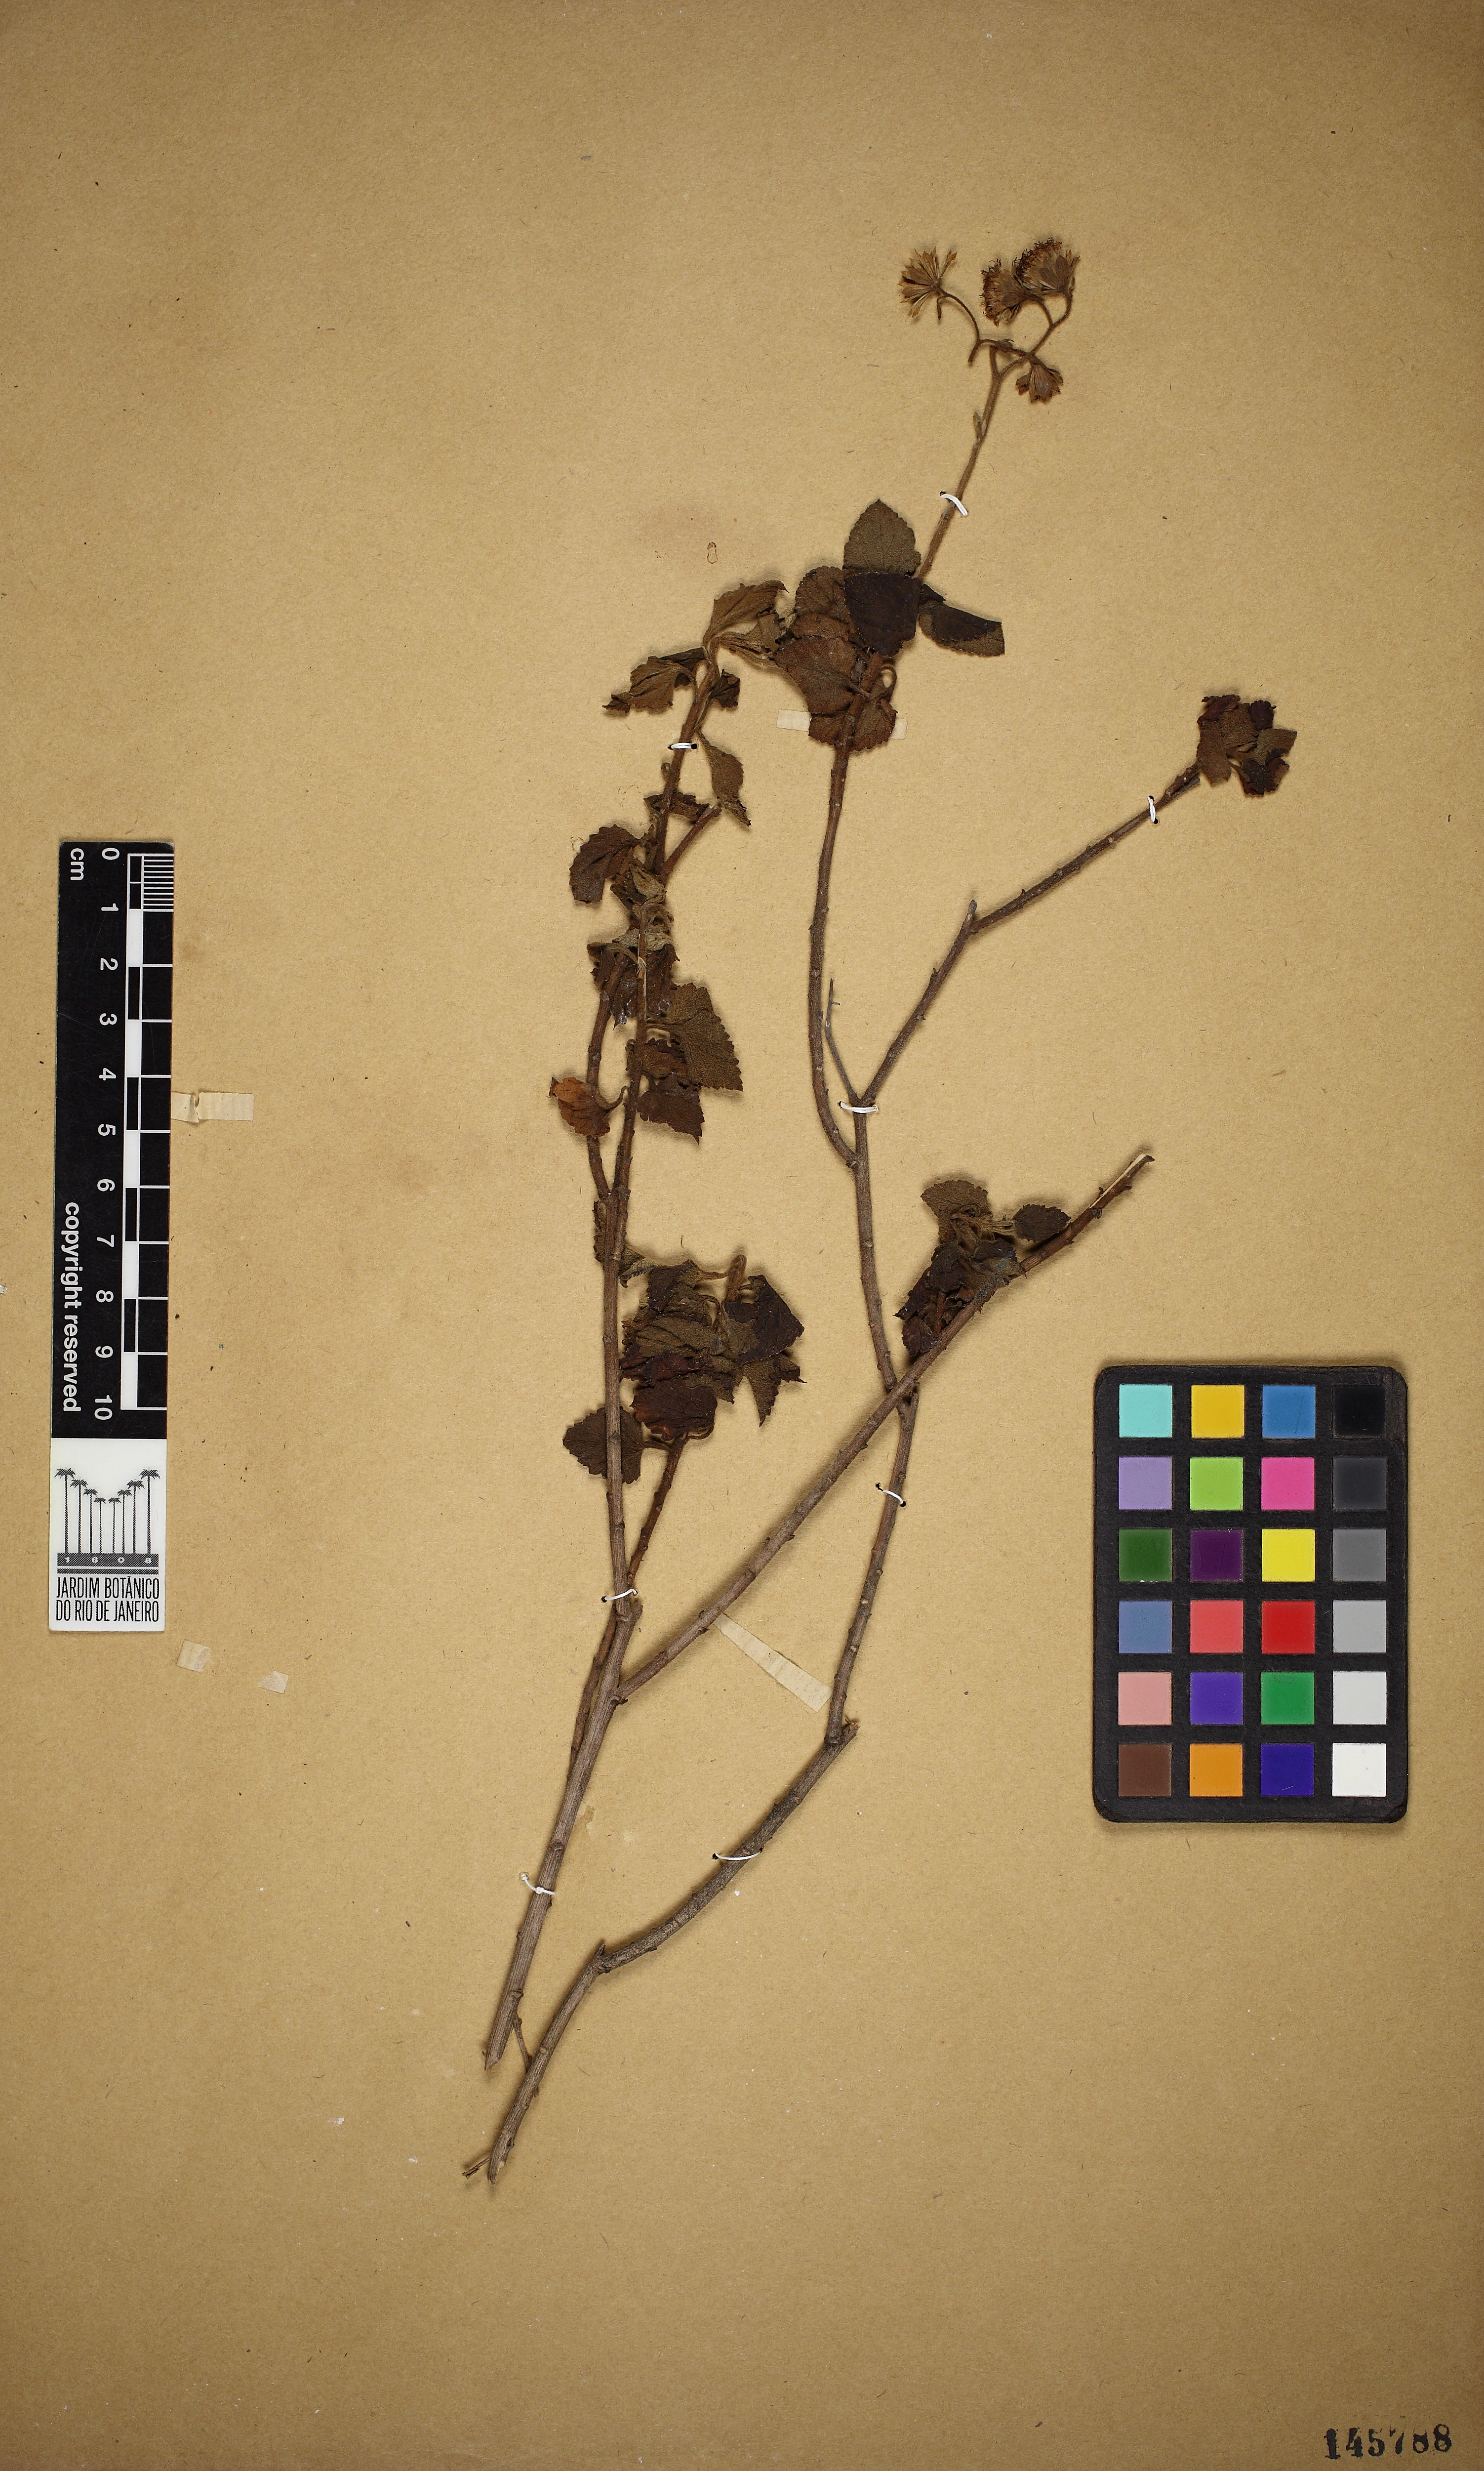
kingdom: Plantae
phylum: Tracheophyta
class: Magnoliopsida
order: Asterales
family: Asteraceae
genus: Trichogoniopsis
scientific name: Trichogoniopsis podocarpa
